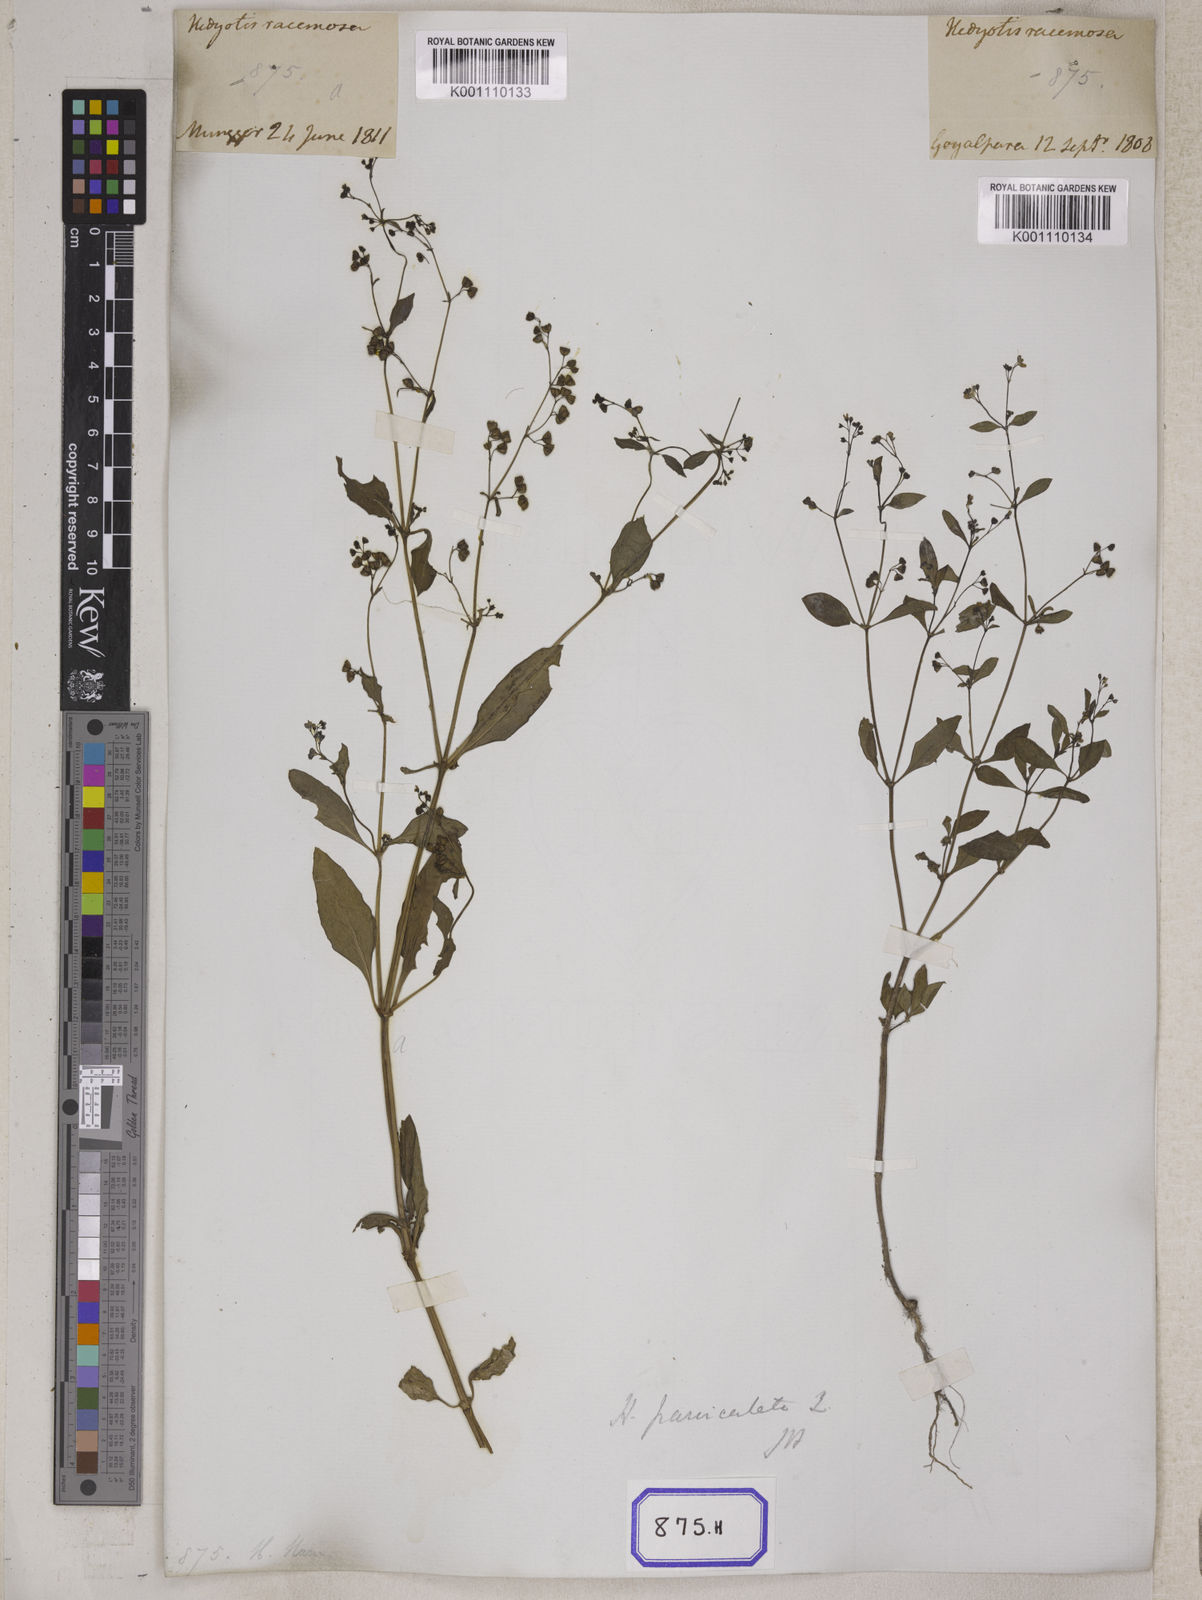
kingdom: Plantae
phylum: Tracheophyta
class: Magnoliopsida
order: Gentianales
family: Rubiaceae
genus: Leptopetalum
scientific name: Leptopetalum racemosum
